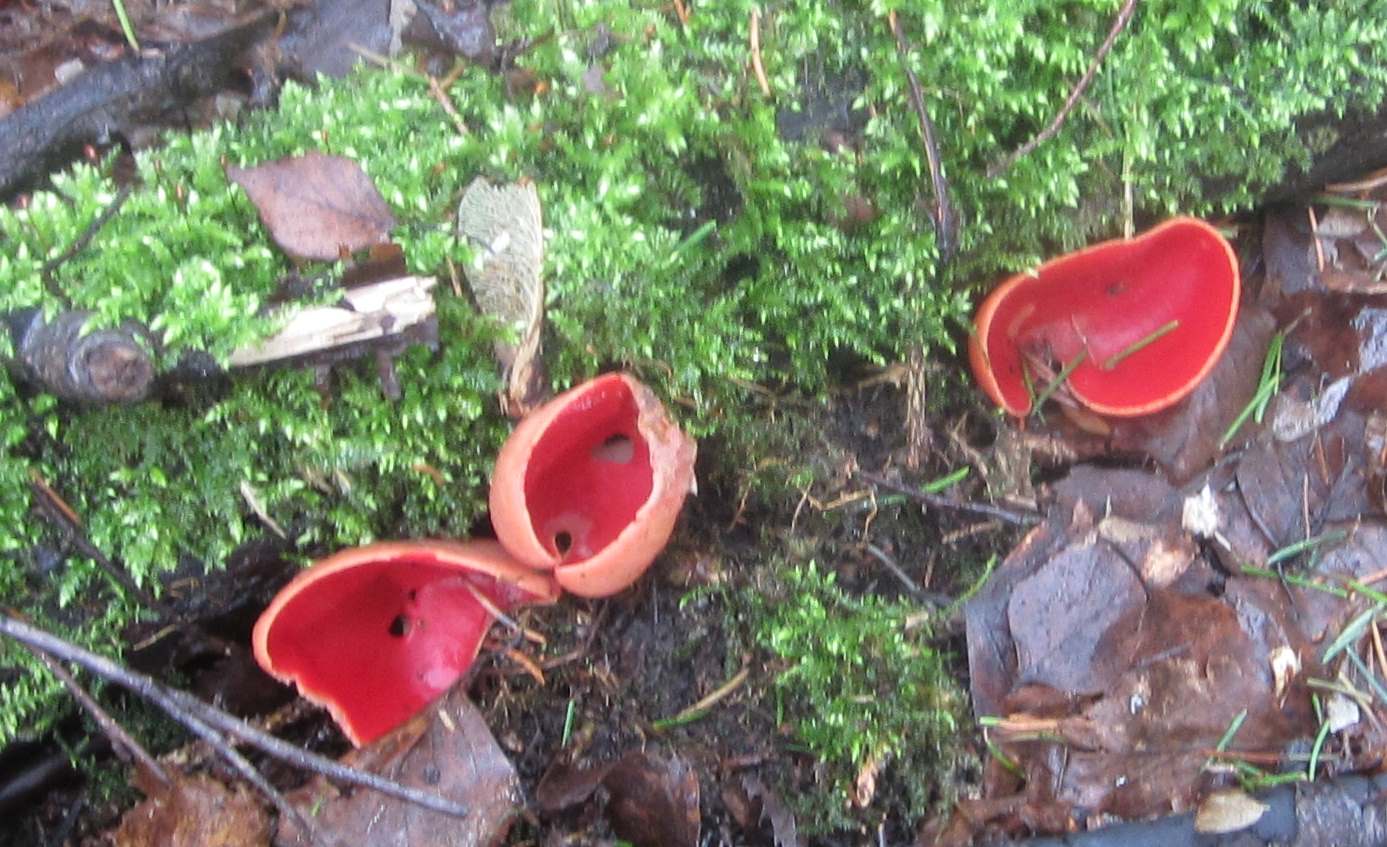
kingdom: Fungi
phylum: Ascomycota
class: Pezizomycetes
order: Pezizales
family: Sarcoscyphaceae
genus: Sarcoscypha
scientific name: Sarcoscypha austriaca
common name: krølhåret pragtbæger
